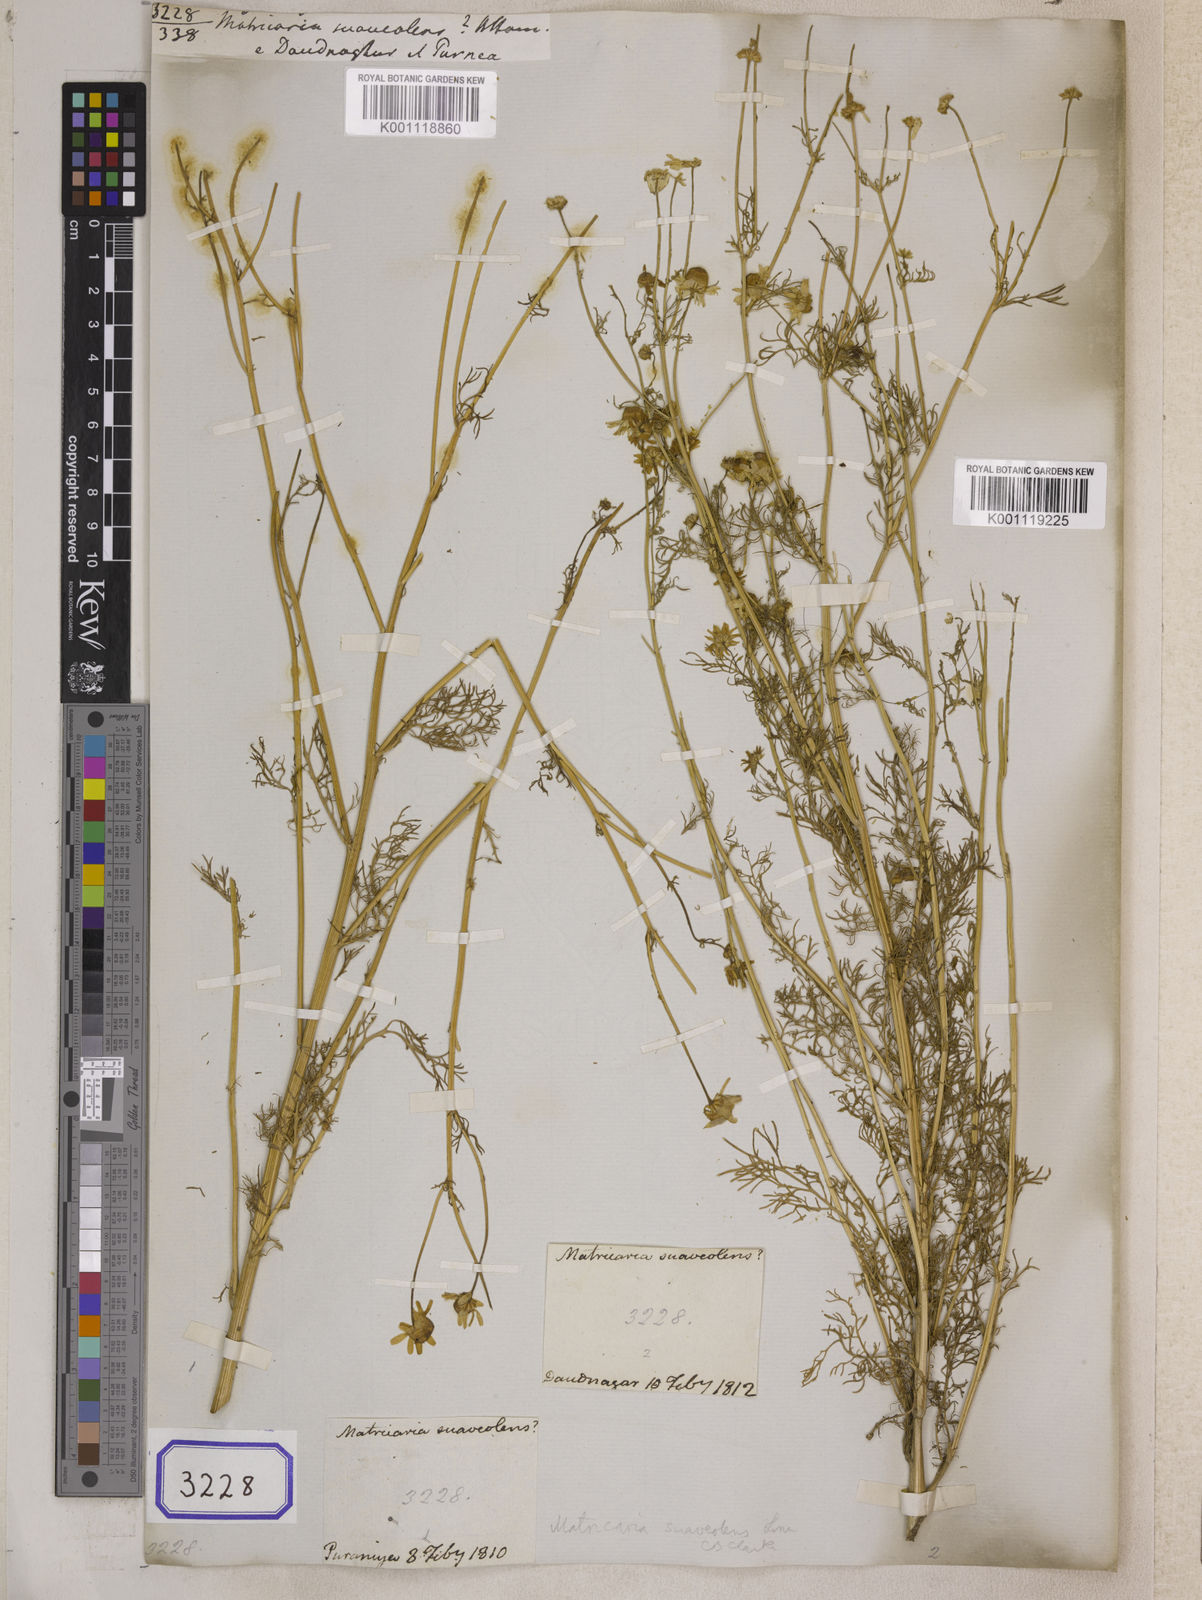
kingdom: Plantae
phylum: Tracheophyta
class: Magnoliopsida
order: Asterales
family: Asteraceae
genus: Matricaria
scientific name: Matricaria chamomilla
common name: Scented mayweed
